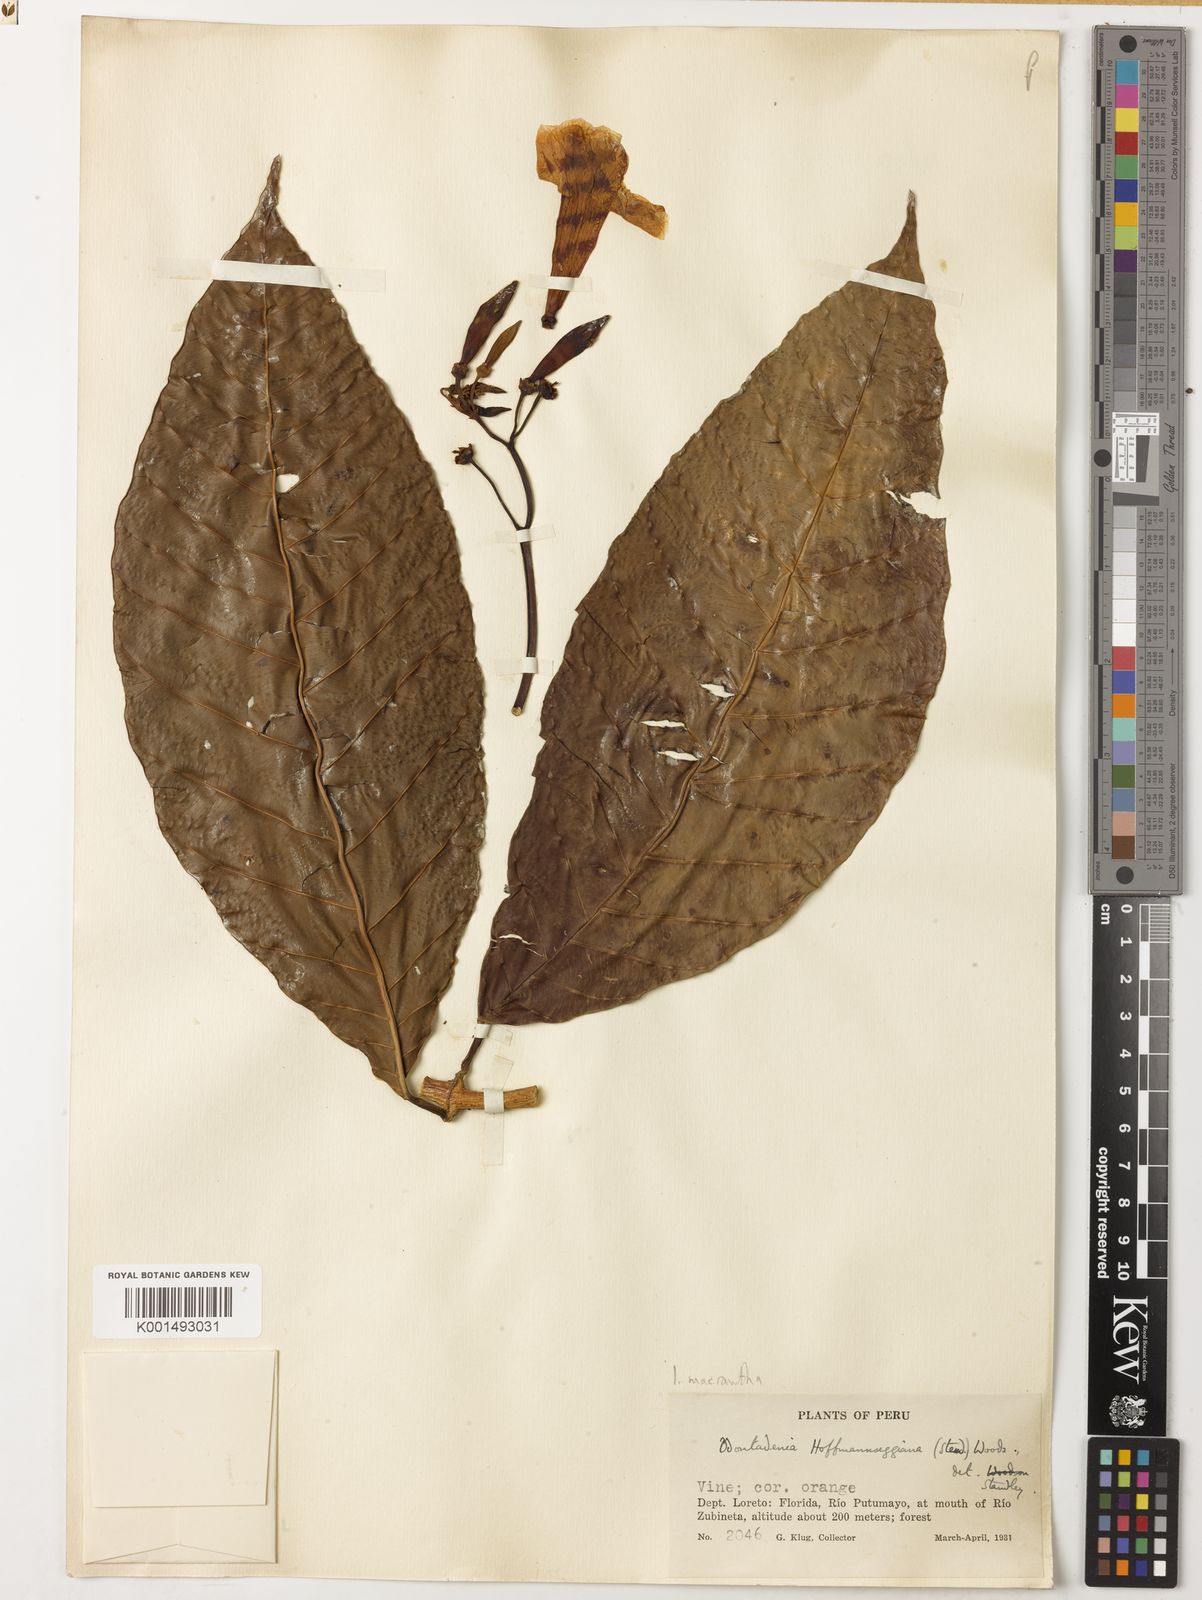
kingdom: Plantae
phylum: Tracheophyta
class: Magnoliopsida
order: Gentianales
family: Apocynaceae
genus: Odontadenia
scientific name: Odontadenia semidigyna
